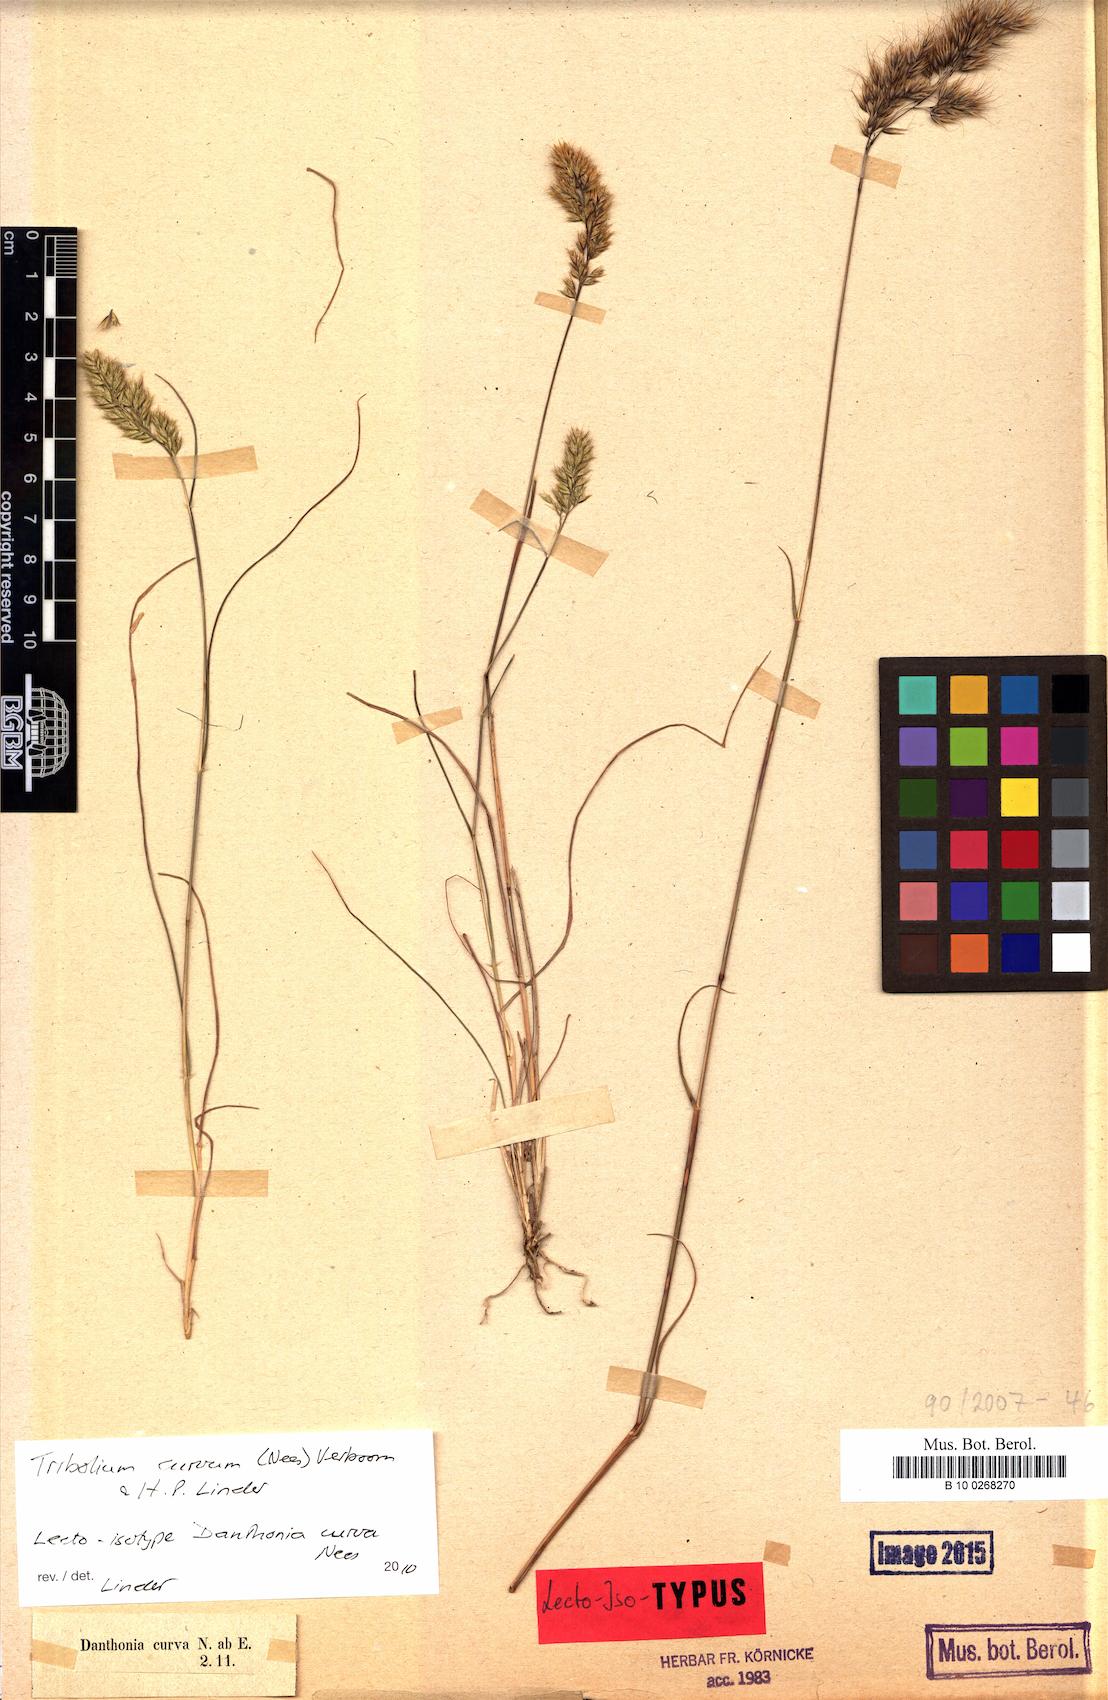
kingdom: Plantae
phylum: Tracheophyta
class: Liliopsida
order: Poales
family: Poaceae
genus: Tribolium
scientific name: Tribolium curvum
